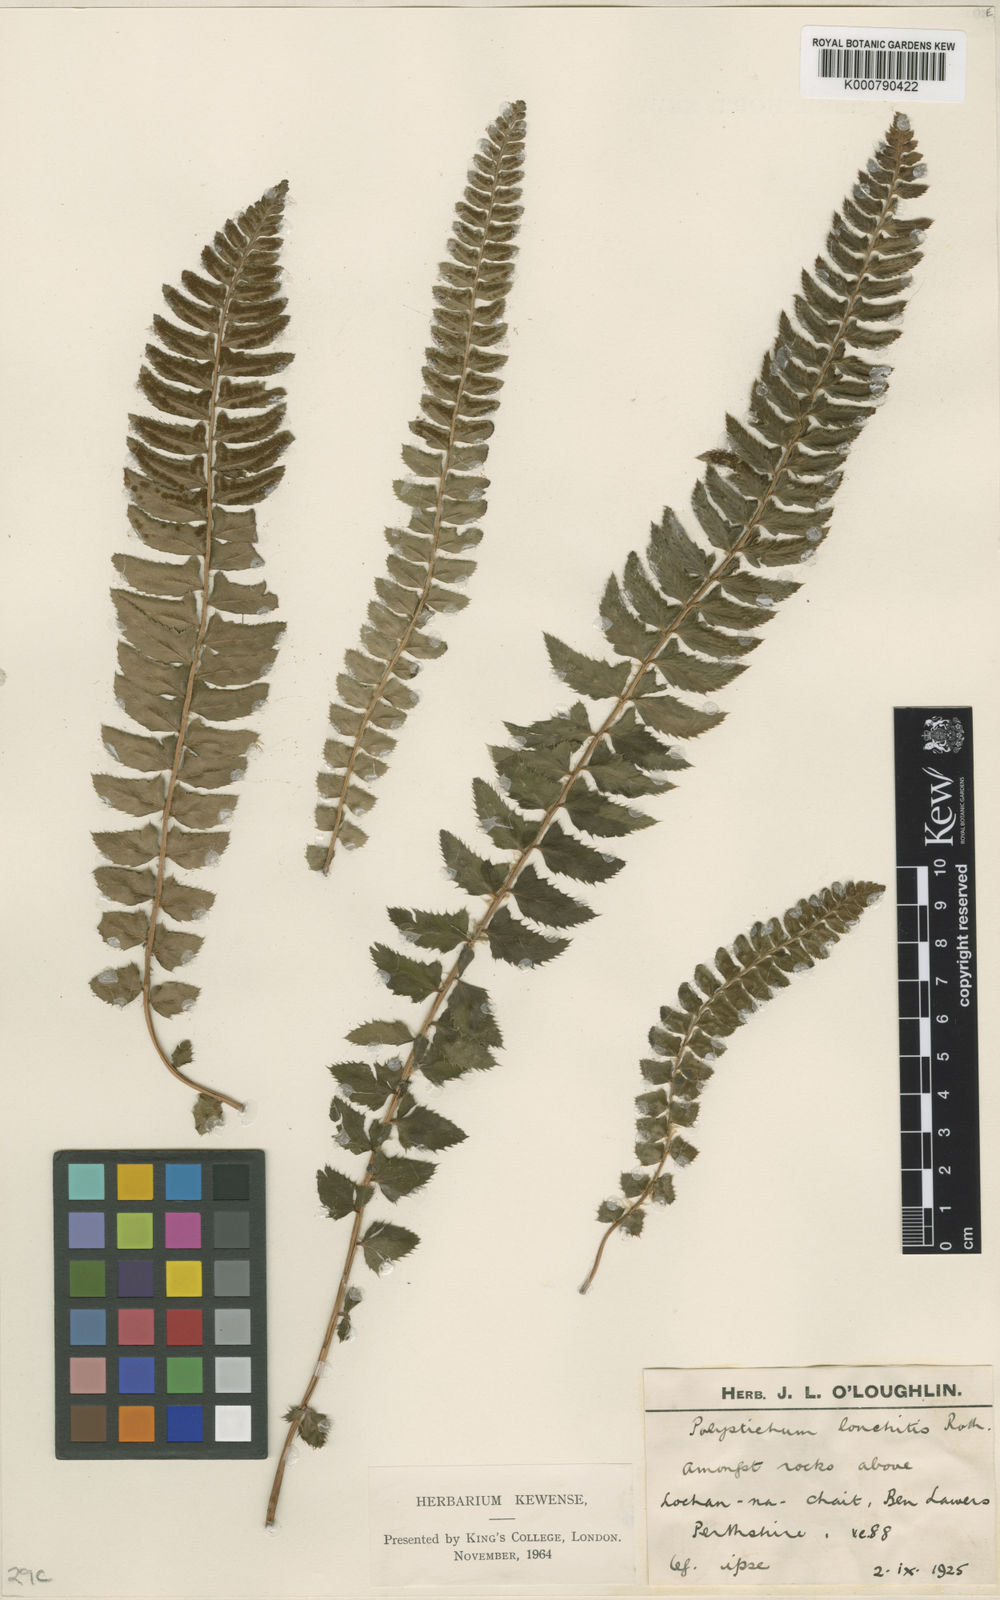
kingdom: Plantae
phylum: Tracheophyta
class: Polypodiopsida
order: Polypodiales
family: Dryopteridaceae
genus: Polystichum
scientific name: Polystichum
